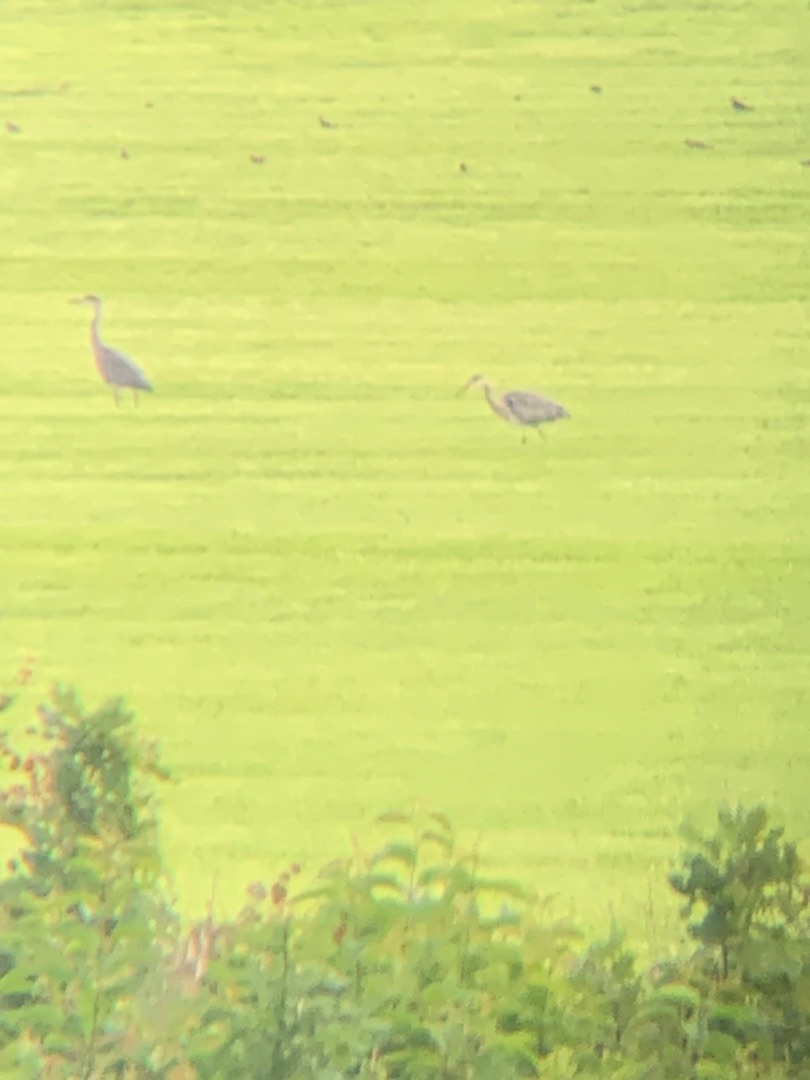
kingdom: Animalia
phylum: Chordata
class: Aves
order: Pelecaniformes
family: Ardeidae
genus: Ardea
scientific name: Ardea cinerea
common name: Fiskehejre
